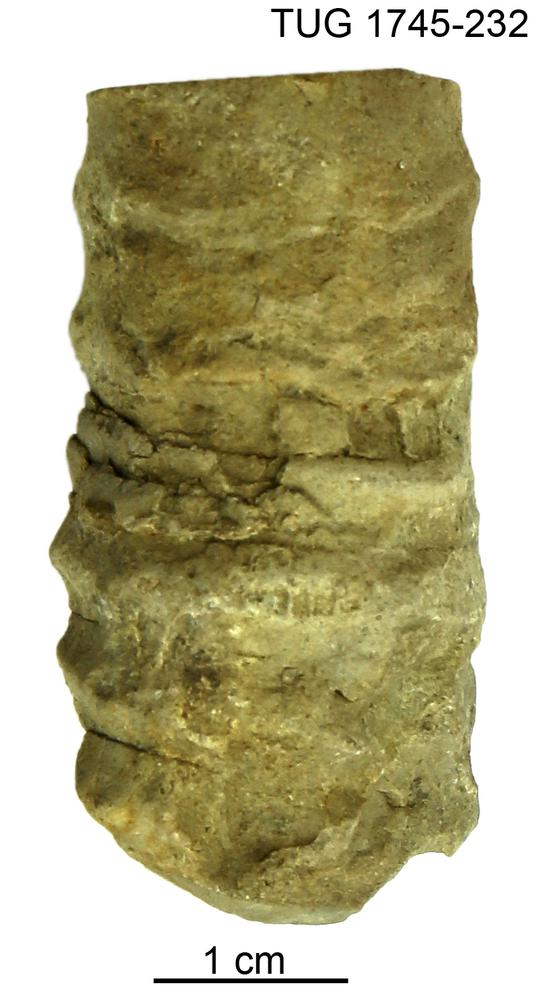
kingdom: Animalia
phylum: Mollusca
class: Cephalopoda
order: Orthocerida
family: Pseudorthoceratidae
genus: Spyroceras
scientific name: Spyroceras Orthoceras clathratoannulatum
